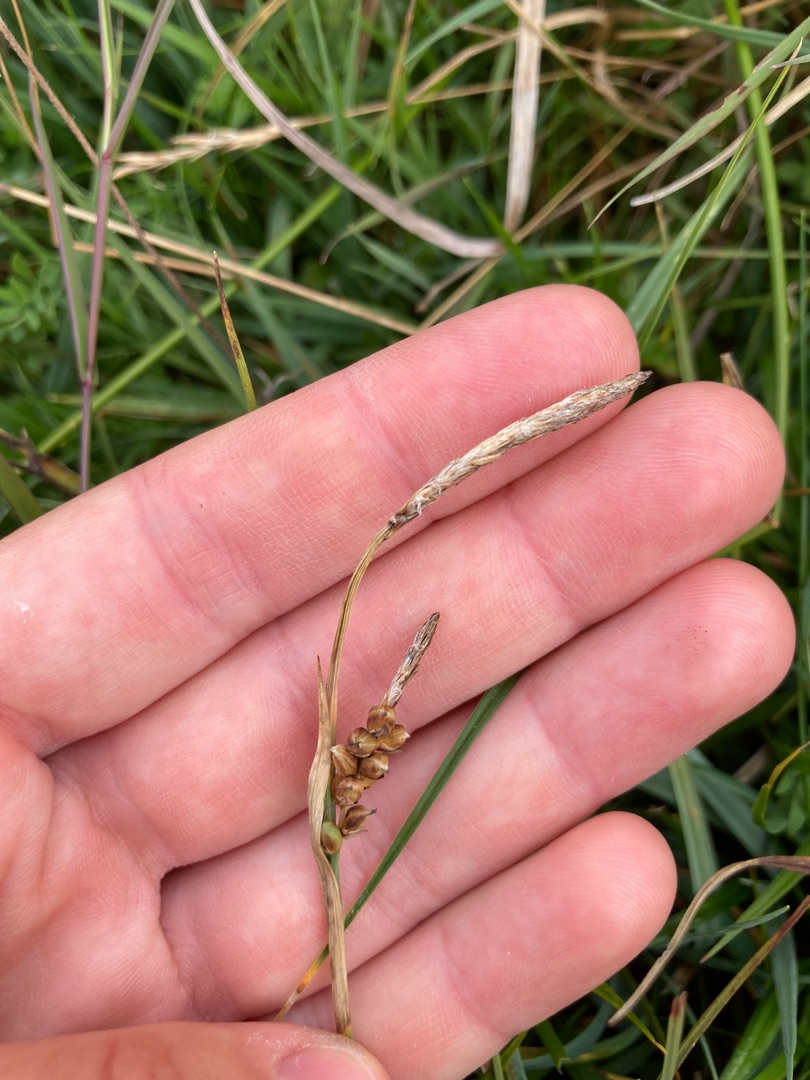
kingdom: Plantae
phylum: Tracheophyta
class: Liliopsida
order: Poales
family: Cyperaceae
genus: Carex
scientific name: Carex panicea
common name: Hirse-star
